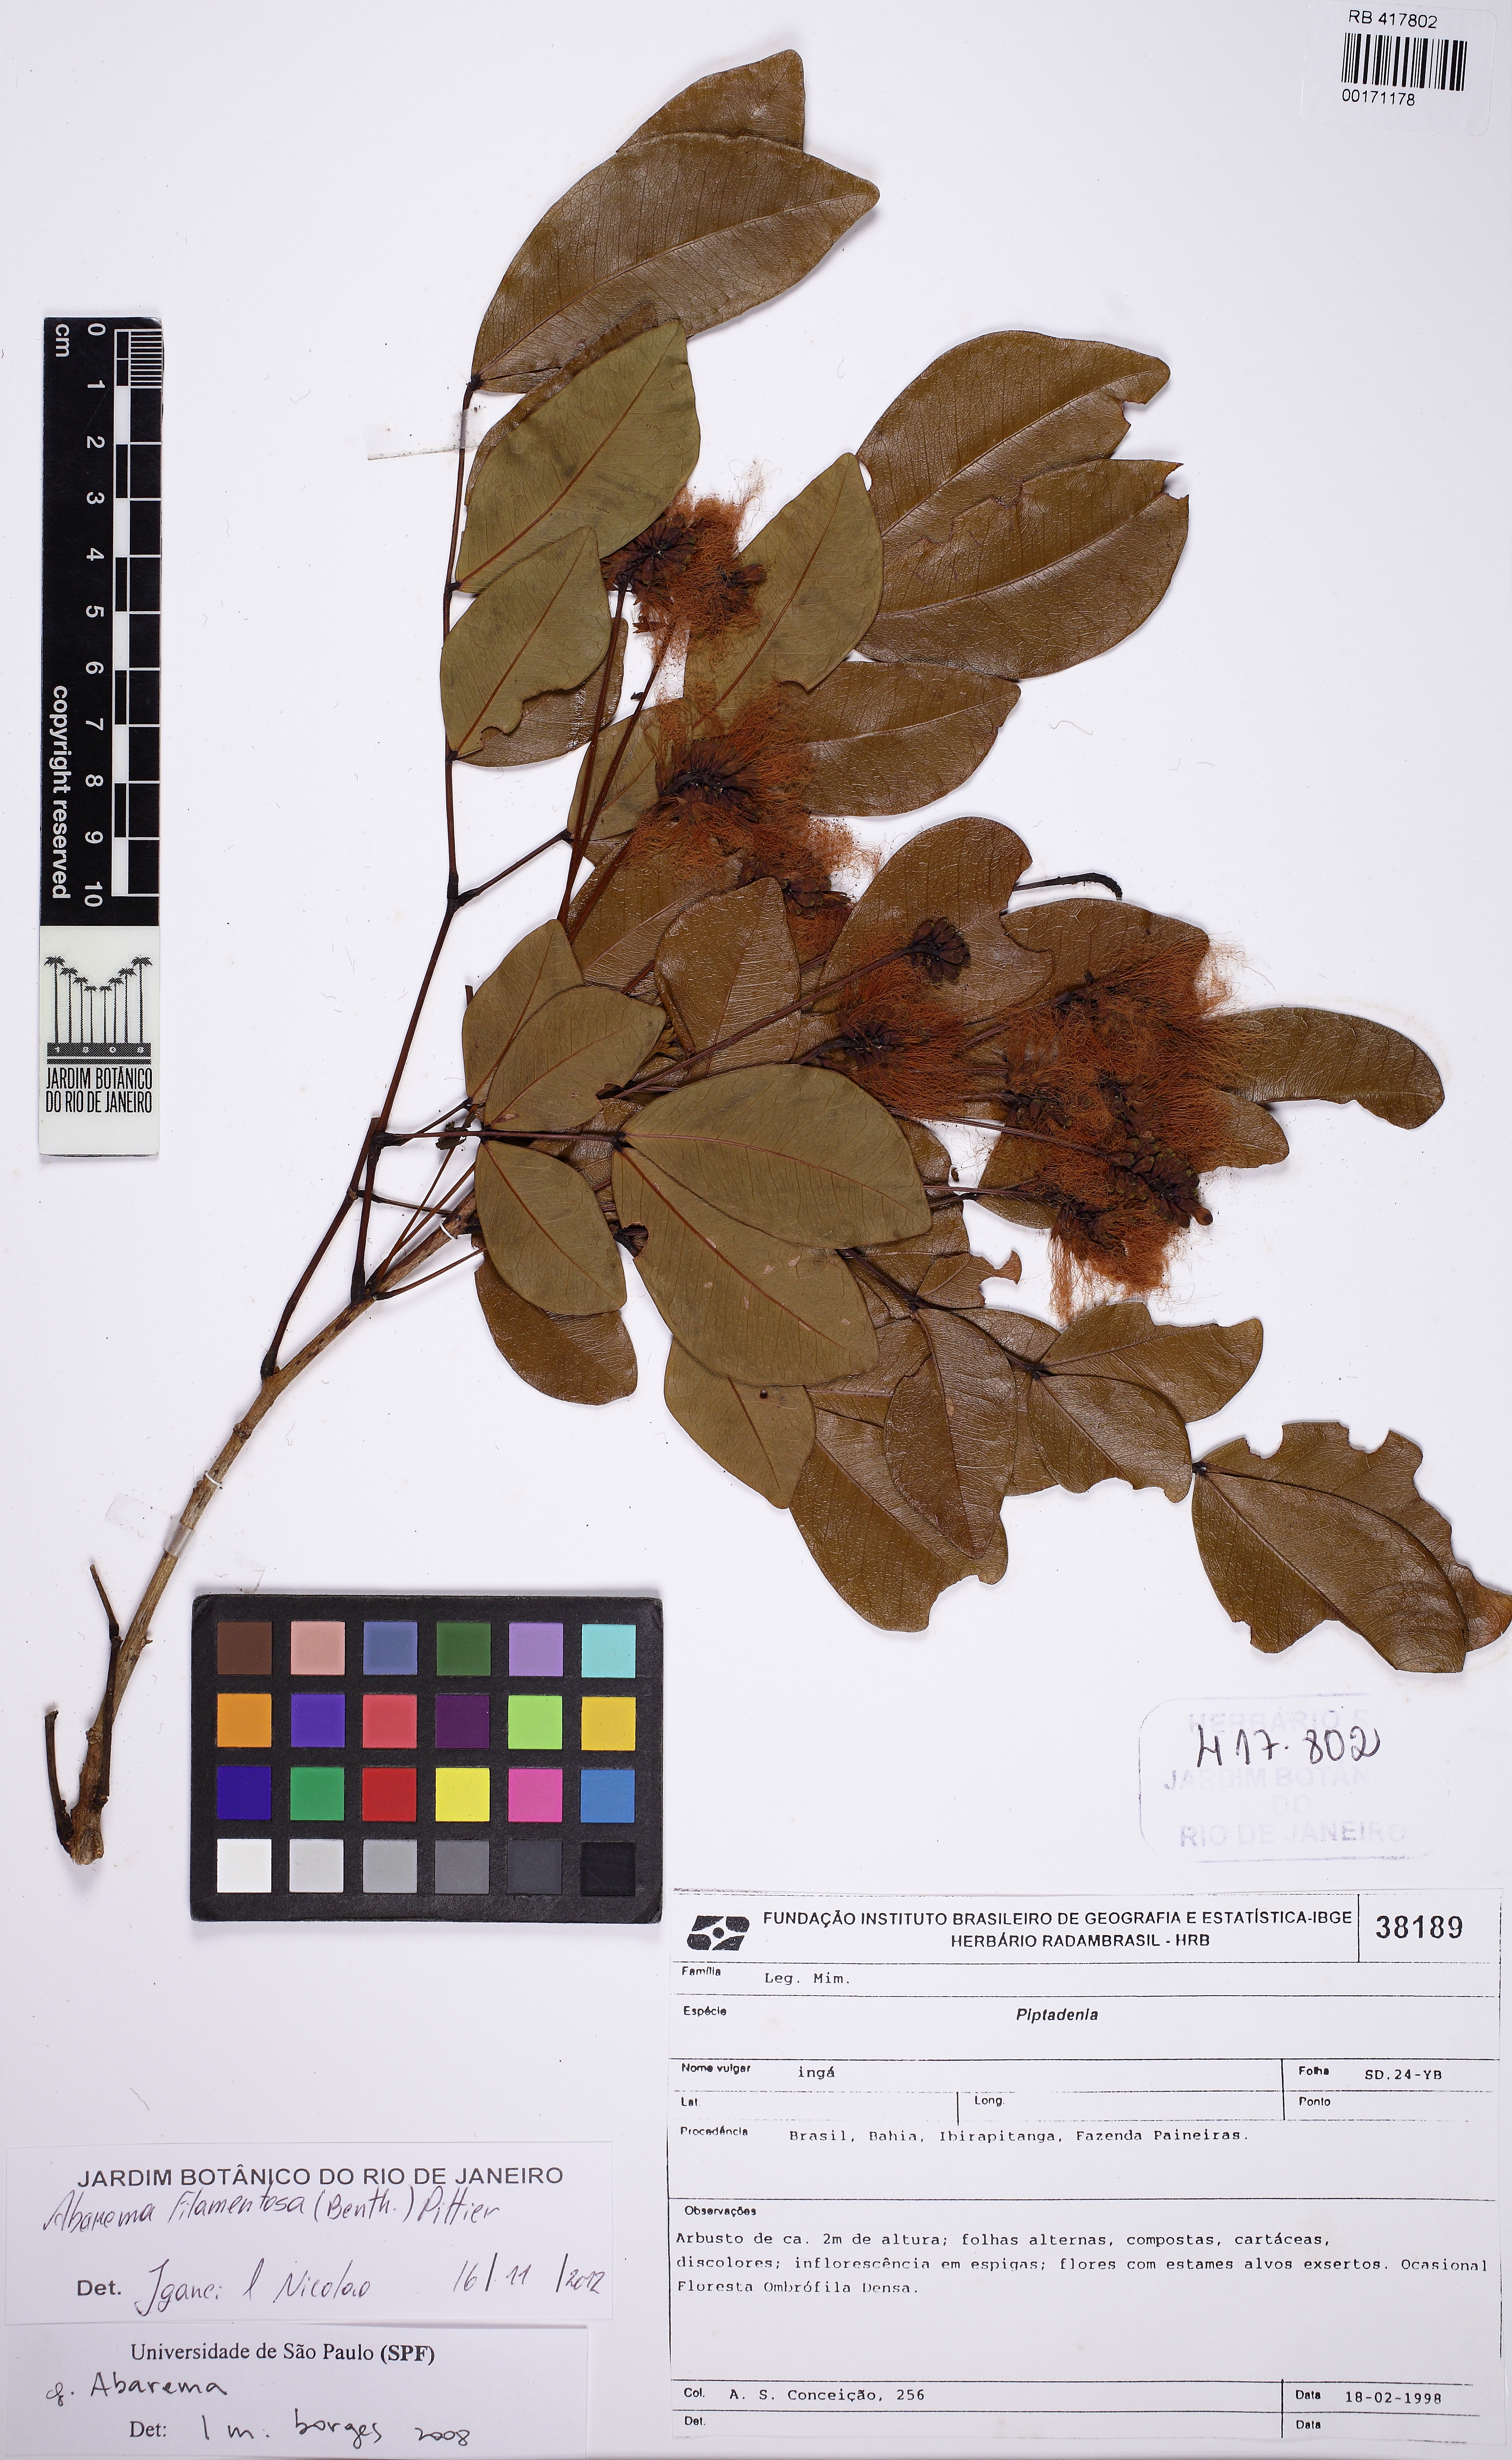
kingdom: Plantae
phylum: Tracheophyta
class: Magnoliopsida
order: Fabales
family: Fabaceae
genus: Jupunba
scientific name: Jupunba filamentosa
